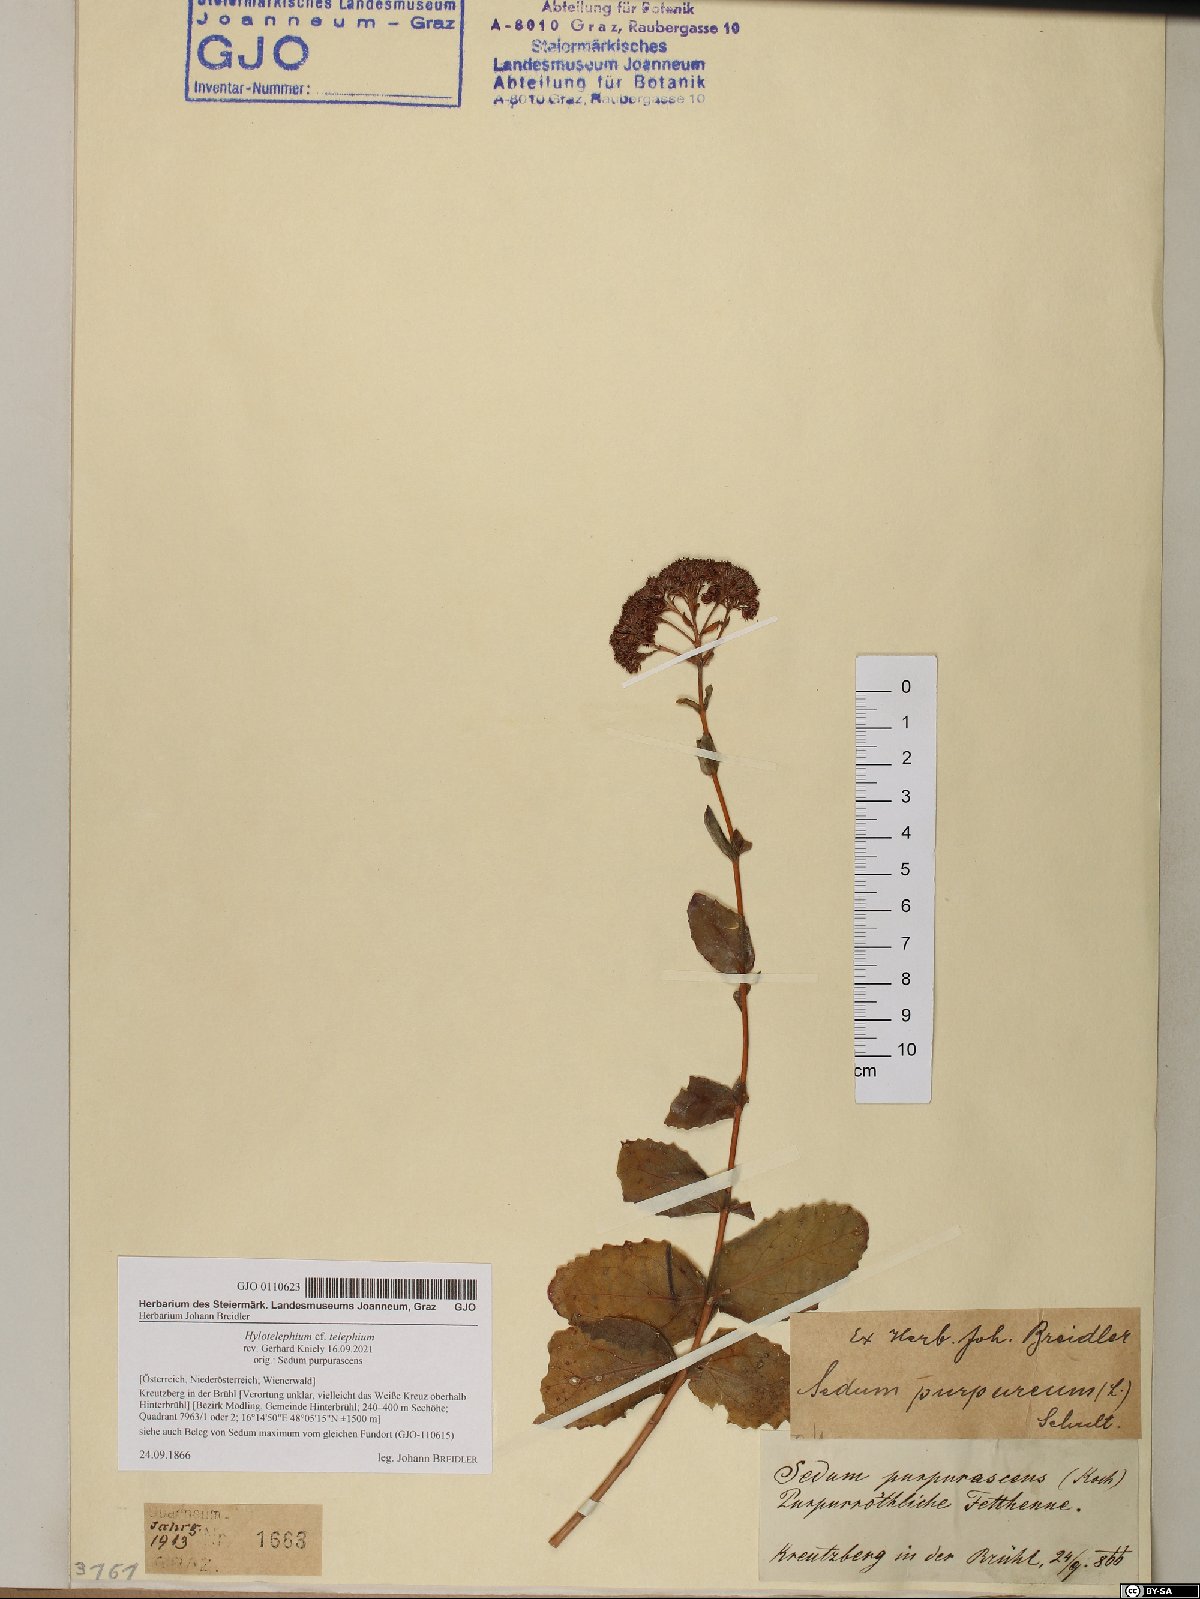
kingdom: Plantae
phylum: Tracheophyta
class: Magnoliopsida
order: Saxifragales
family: Crassulaceae
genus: Hylotelephium
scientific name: Hylotelephium telephium
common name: Live-forever
